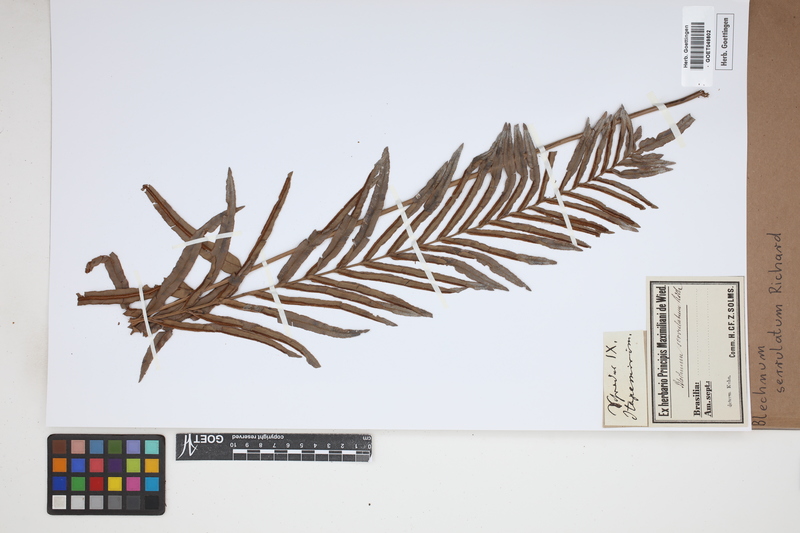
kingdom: Plantae
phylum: Tracheophyta
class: Polypodiopsida
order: Polypodiales
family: Blechnaceae
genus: Telmatoblechnum
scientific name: Telmatoblechnum serrulatum
